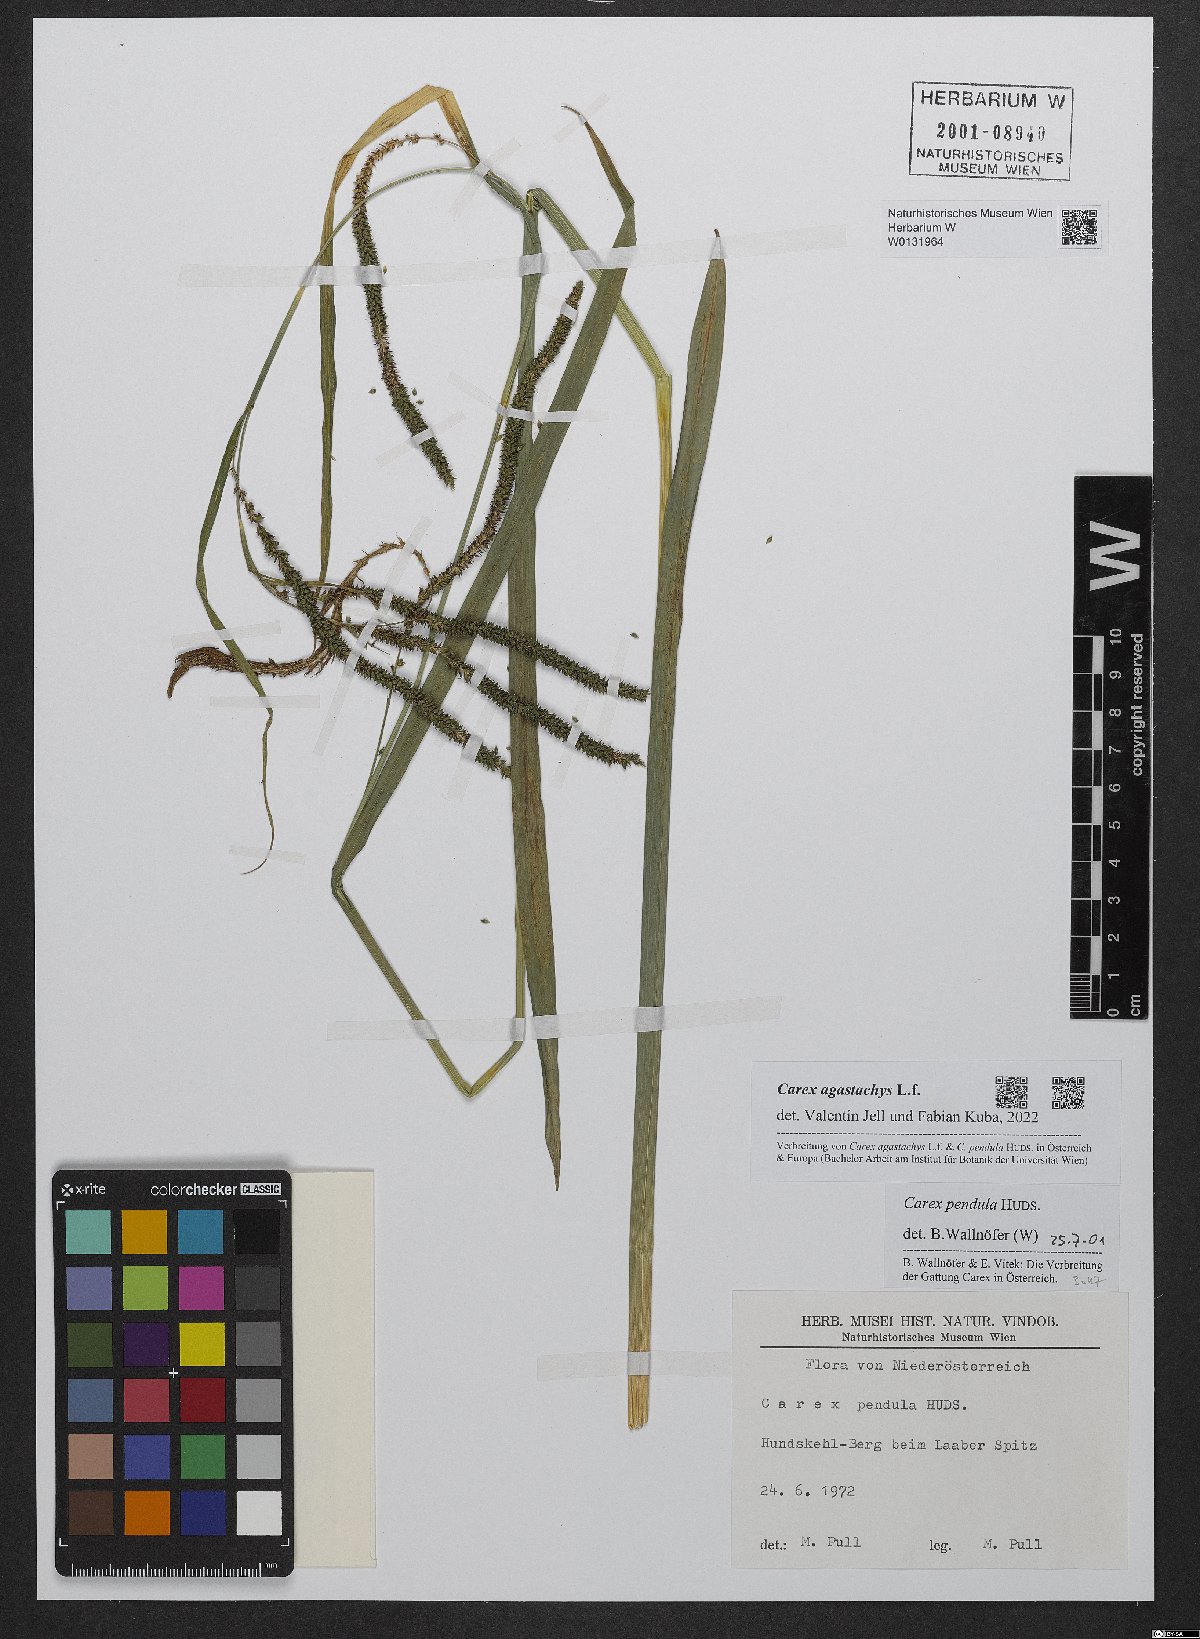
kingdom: Plantae
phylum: Tracheophyta
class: Liliopsida
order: Poales
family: Cyperaceae
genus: Carex
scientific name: Carex agastachys
